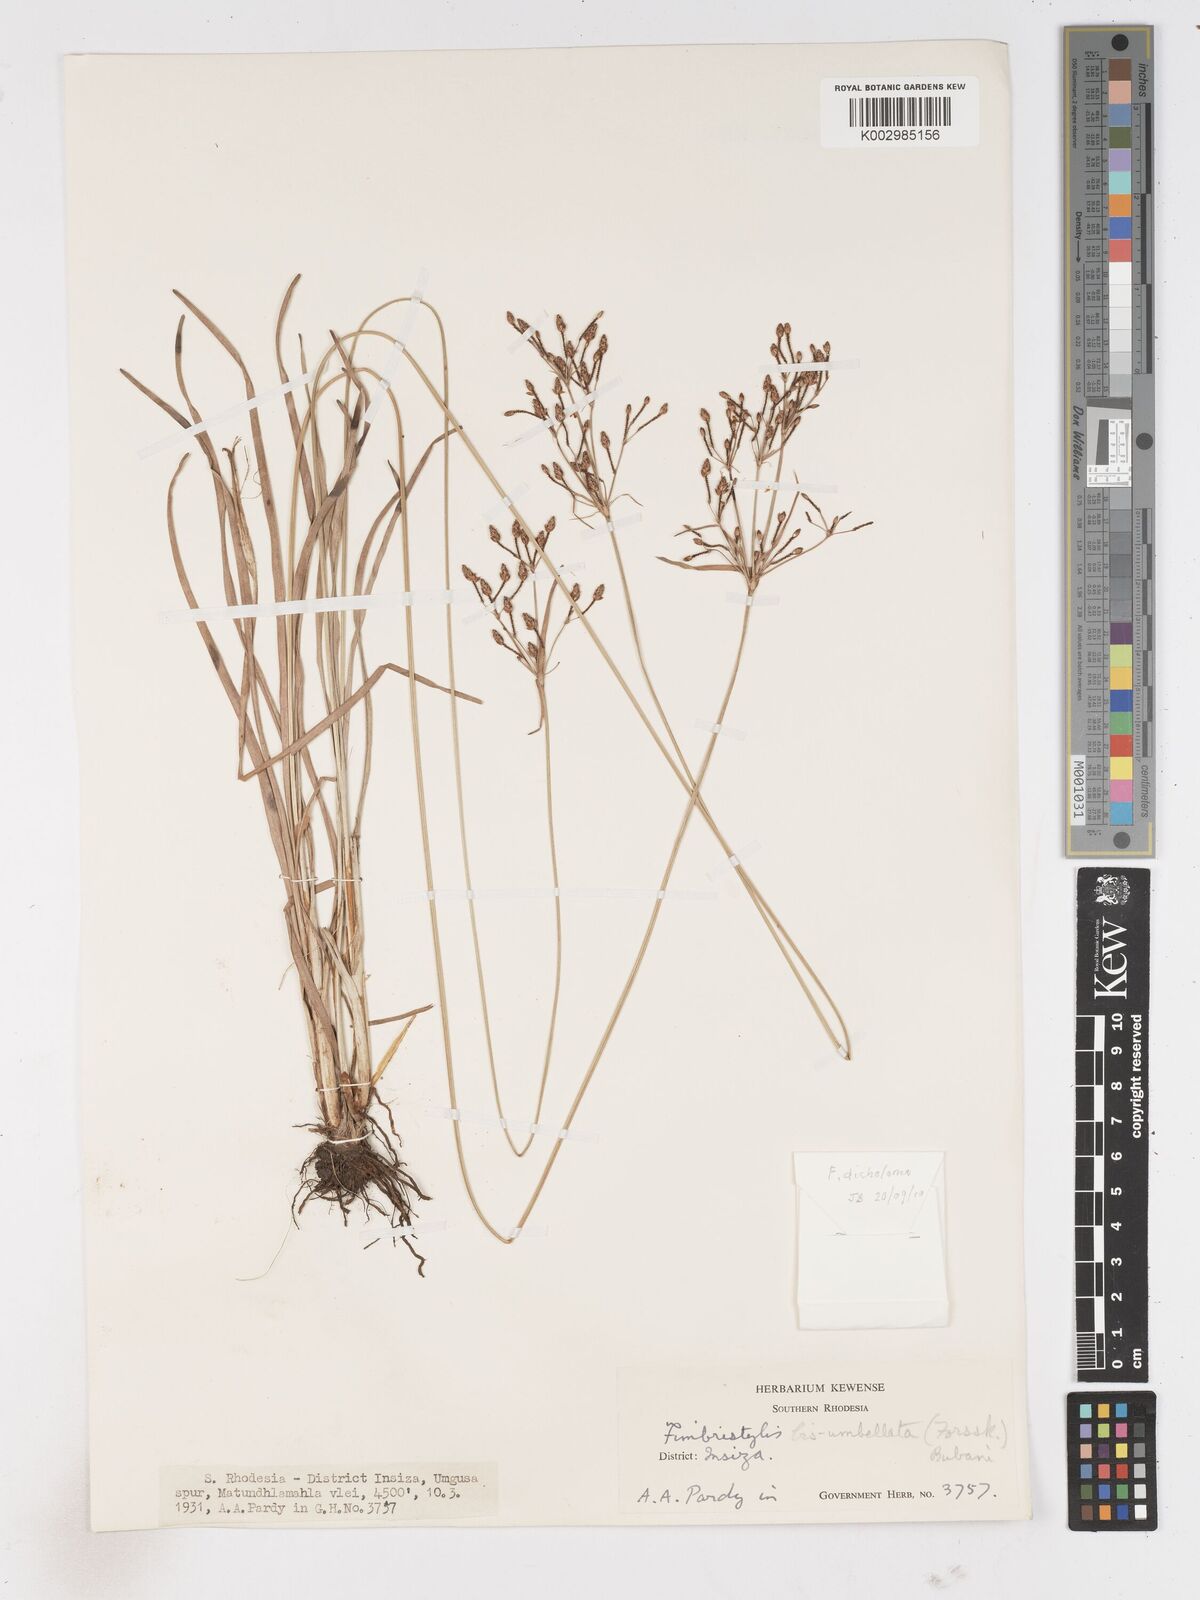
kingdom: Plantae
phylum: Tracheophyta
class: Liliopsida
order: Poales
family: Cyperaceae
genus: Fimbristylis
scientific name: Fimbristylis dichotoma
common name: Forked fimbry
